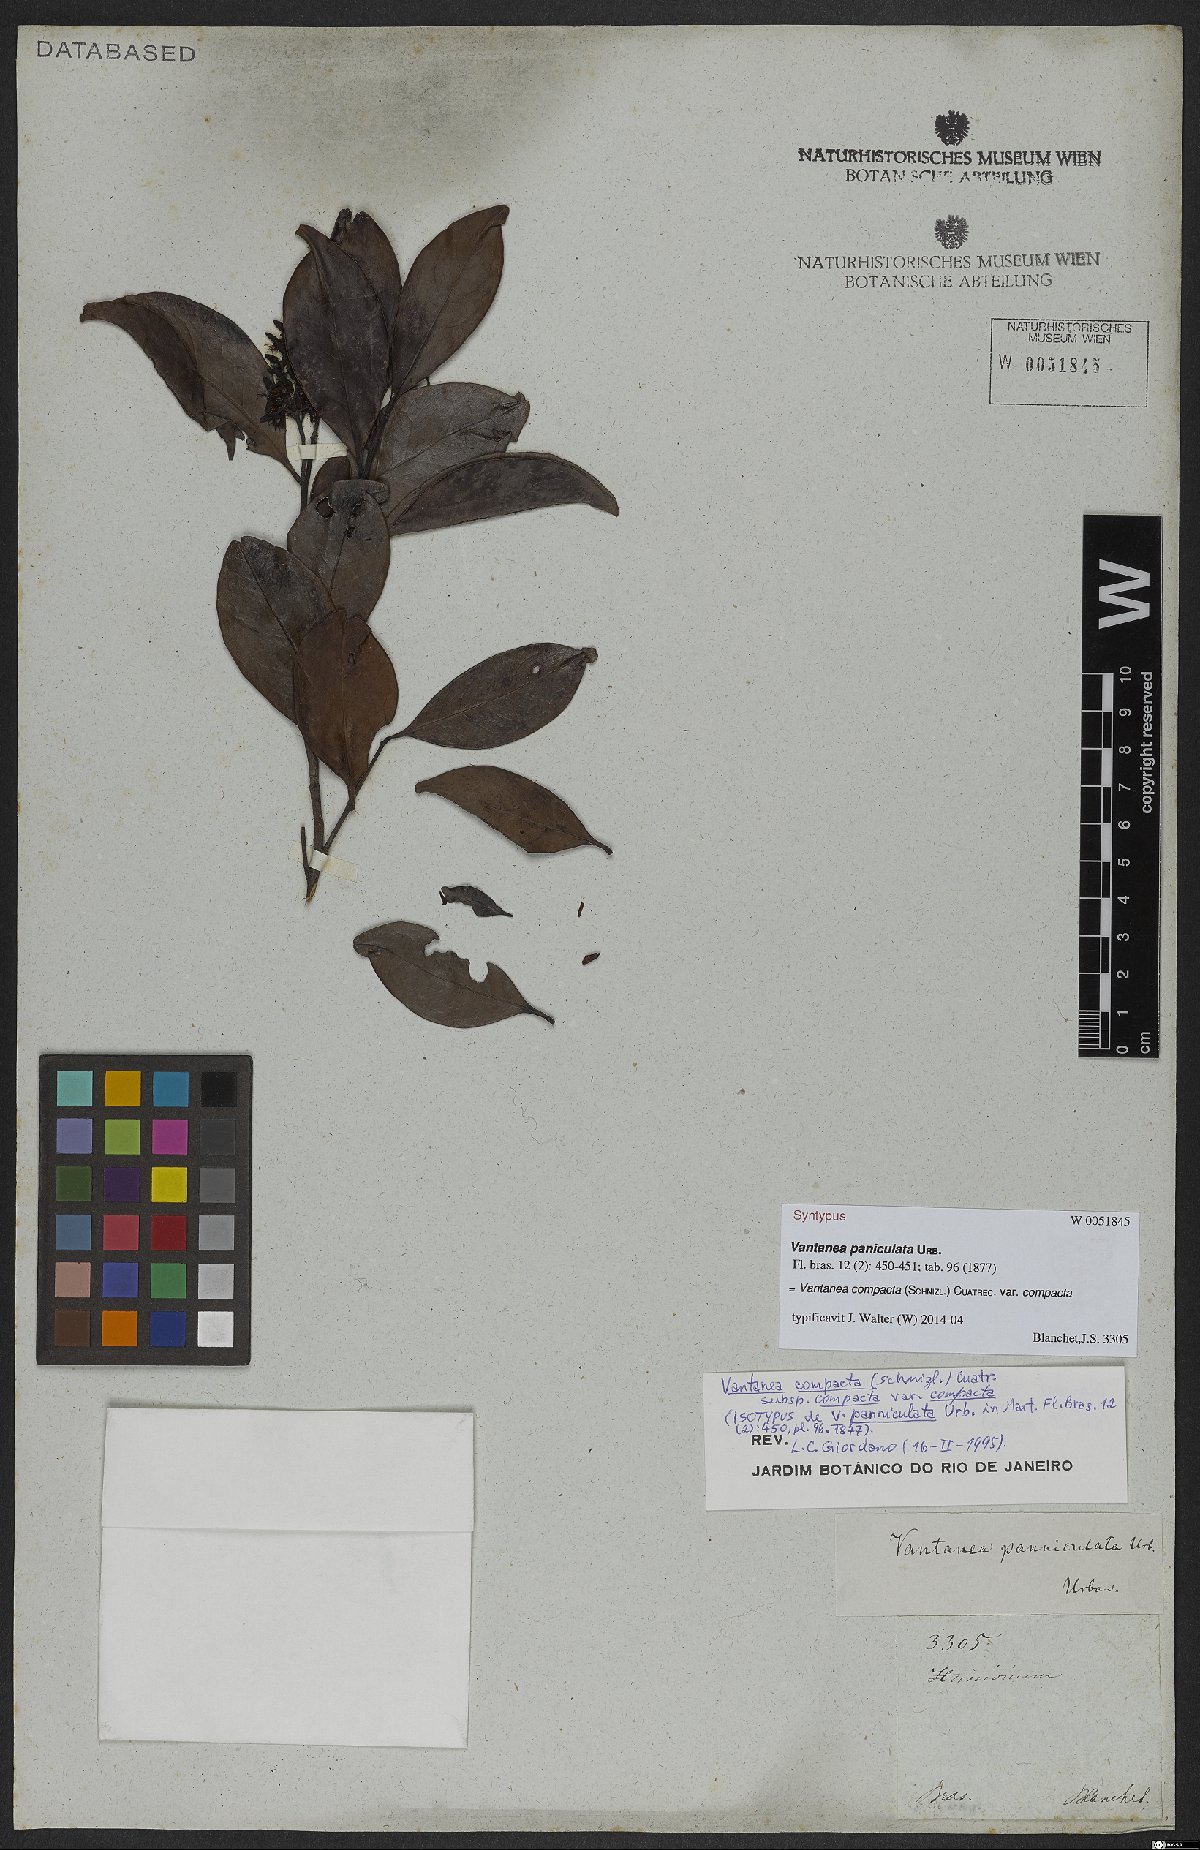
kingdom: Plantae
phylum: Tracheophyta
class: Magnoliopsida
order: Malpighiales
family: Humiriaceae
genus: Vantanea
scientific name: Vantanea compacta
